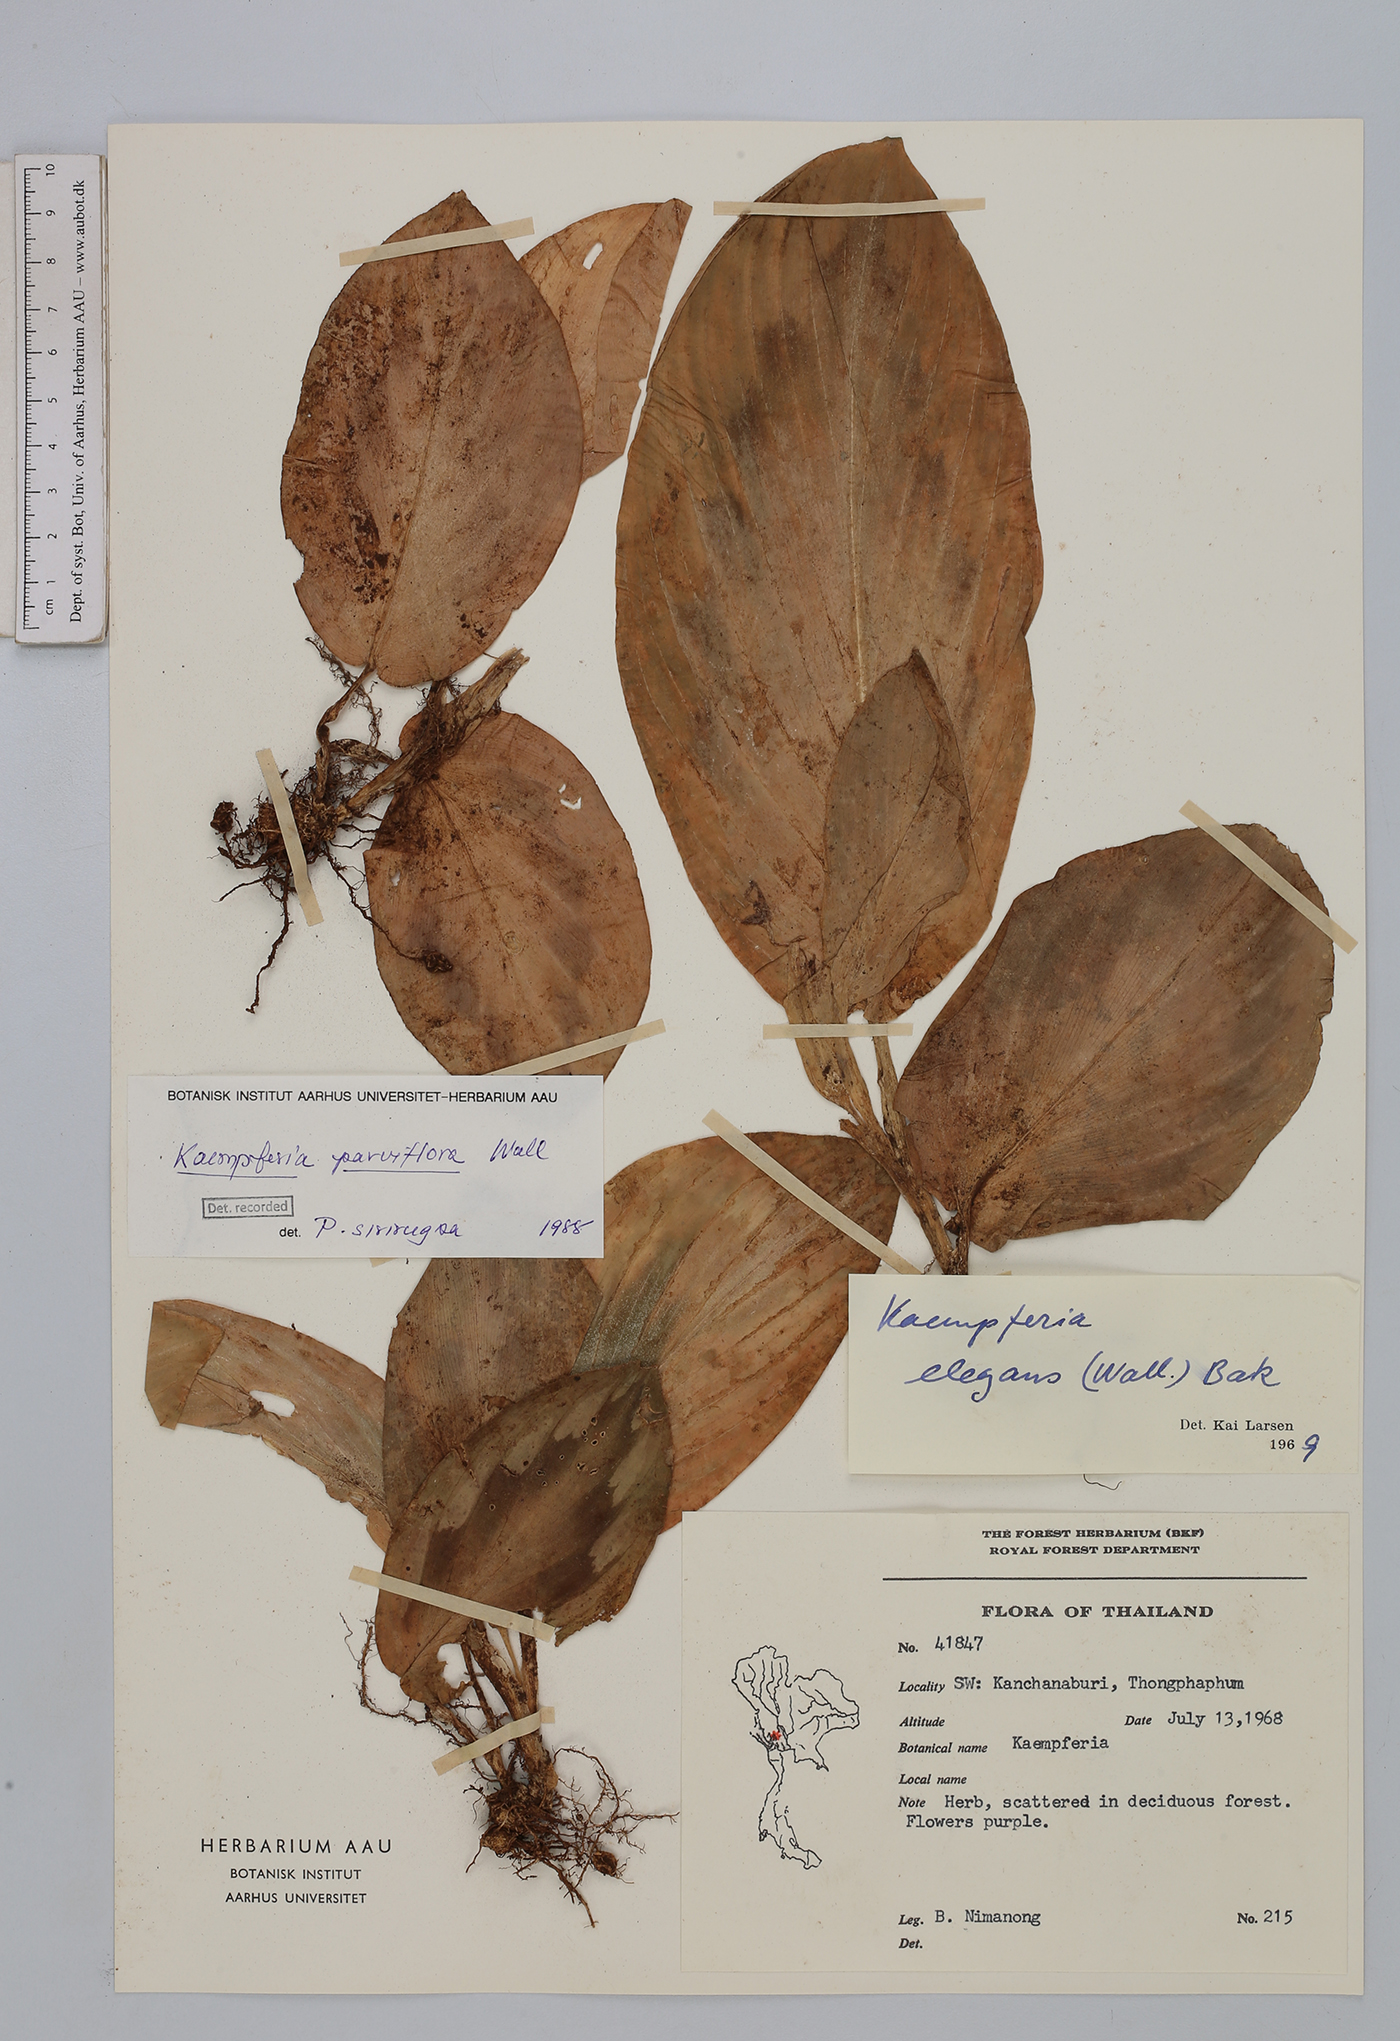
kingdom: Plantae
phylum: Tracheophyta
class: Liliopsida
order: Zingiberales
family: Zingiberaceae
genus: Kaempferia
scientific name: Kaempferia parviflora
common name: Black galingale
